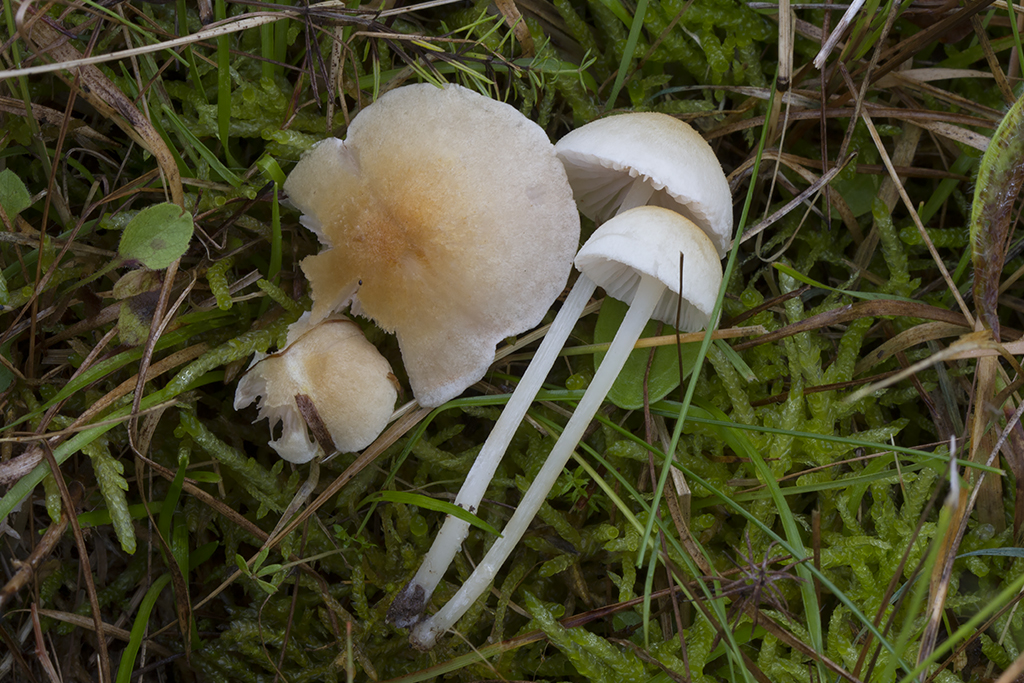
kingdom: Fungi
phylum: Basidiomycota
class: Agaricomycetes
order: Agaricales
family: Entolomataceae
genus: Entoloma
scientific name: Entoloma sericellum
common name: silkehvid rødblad
